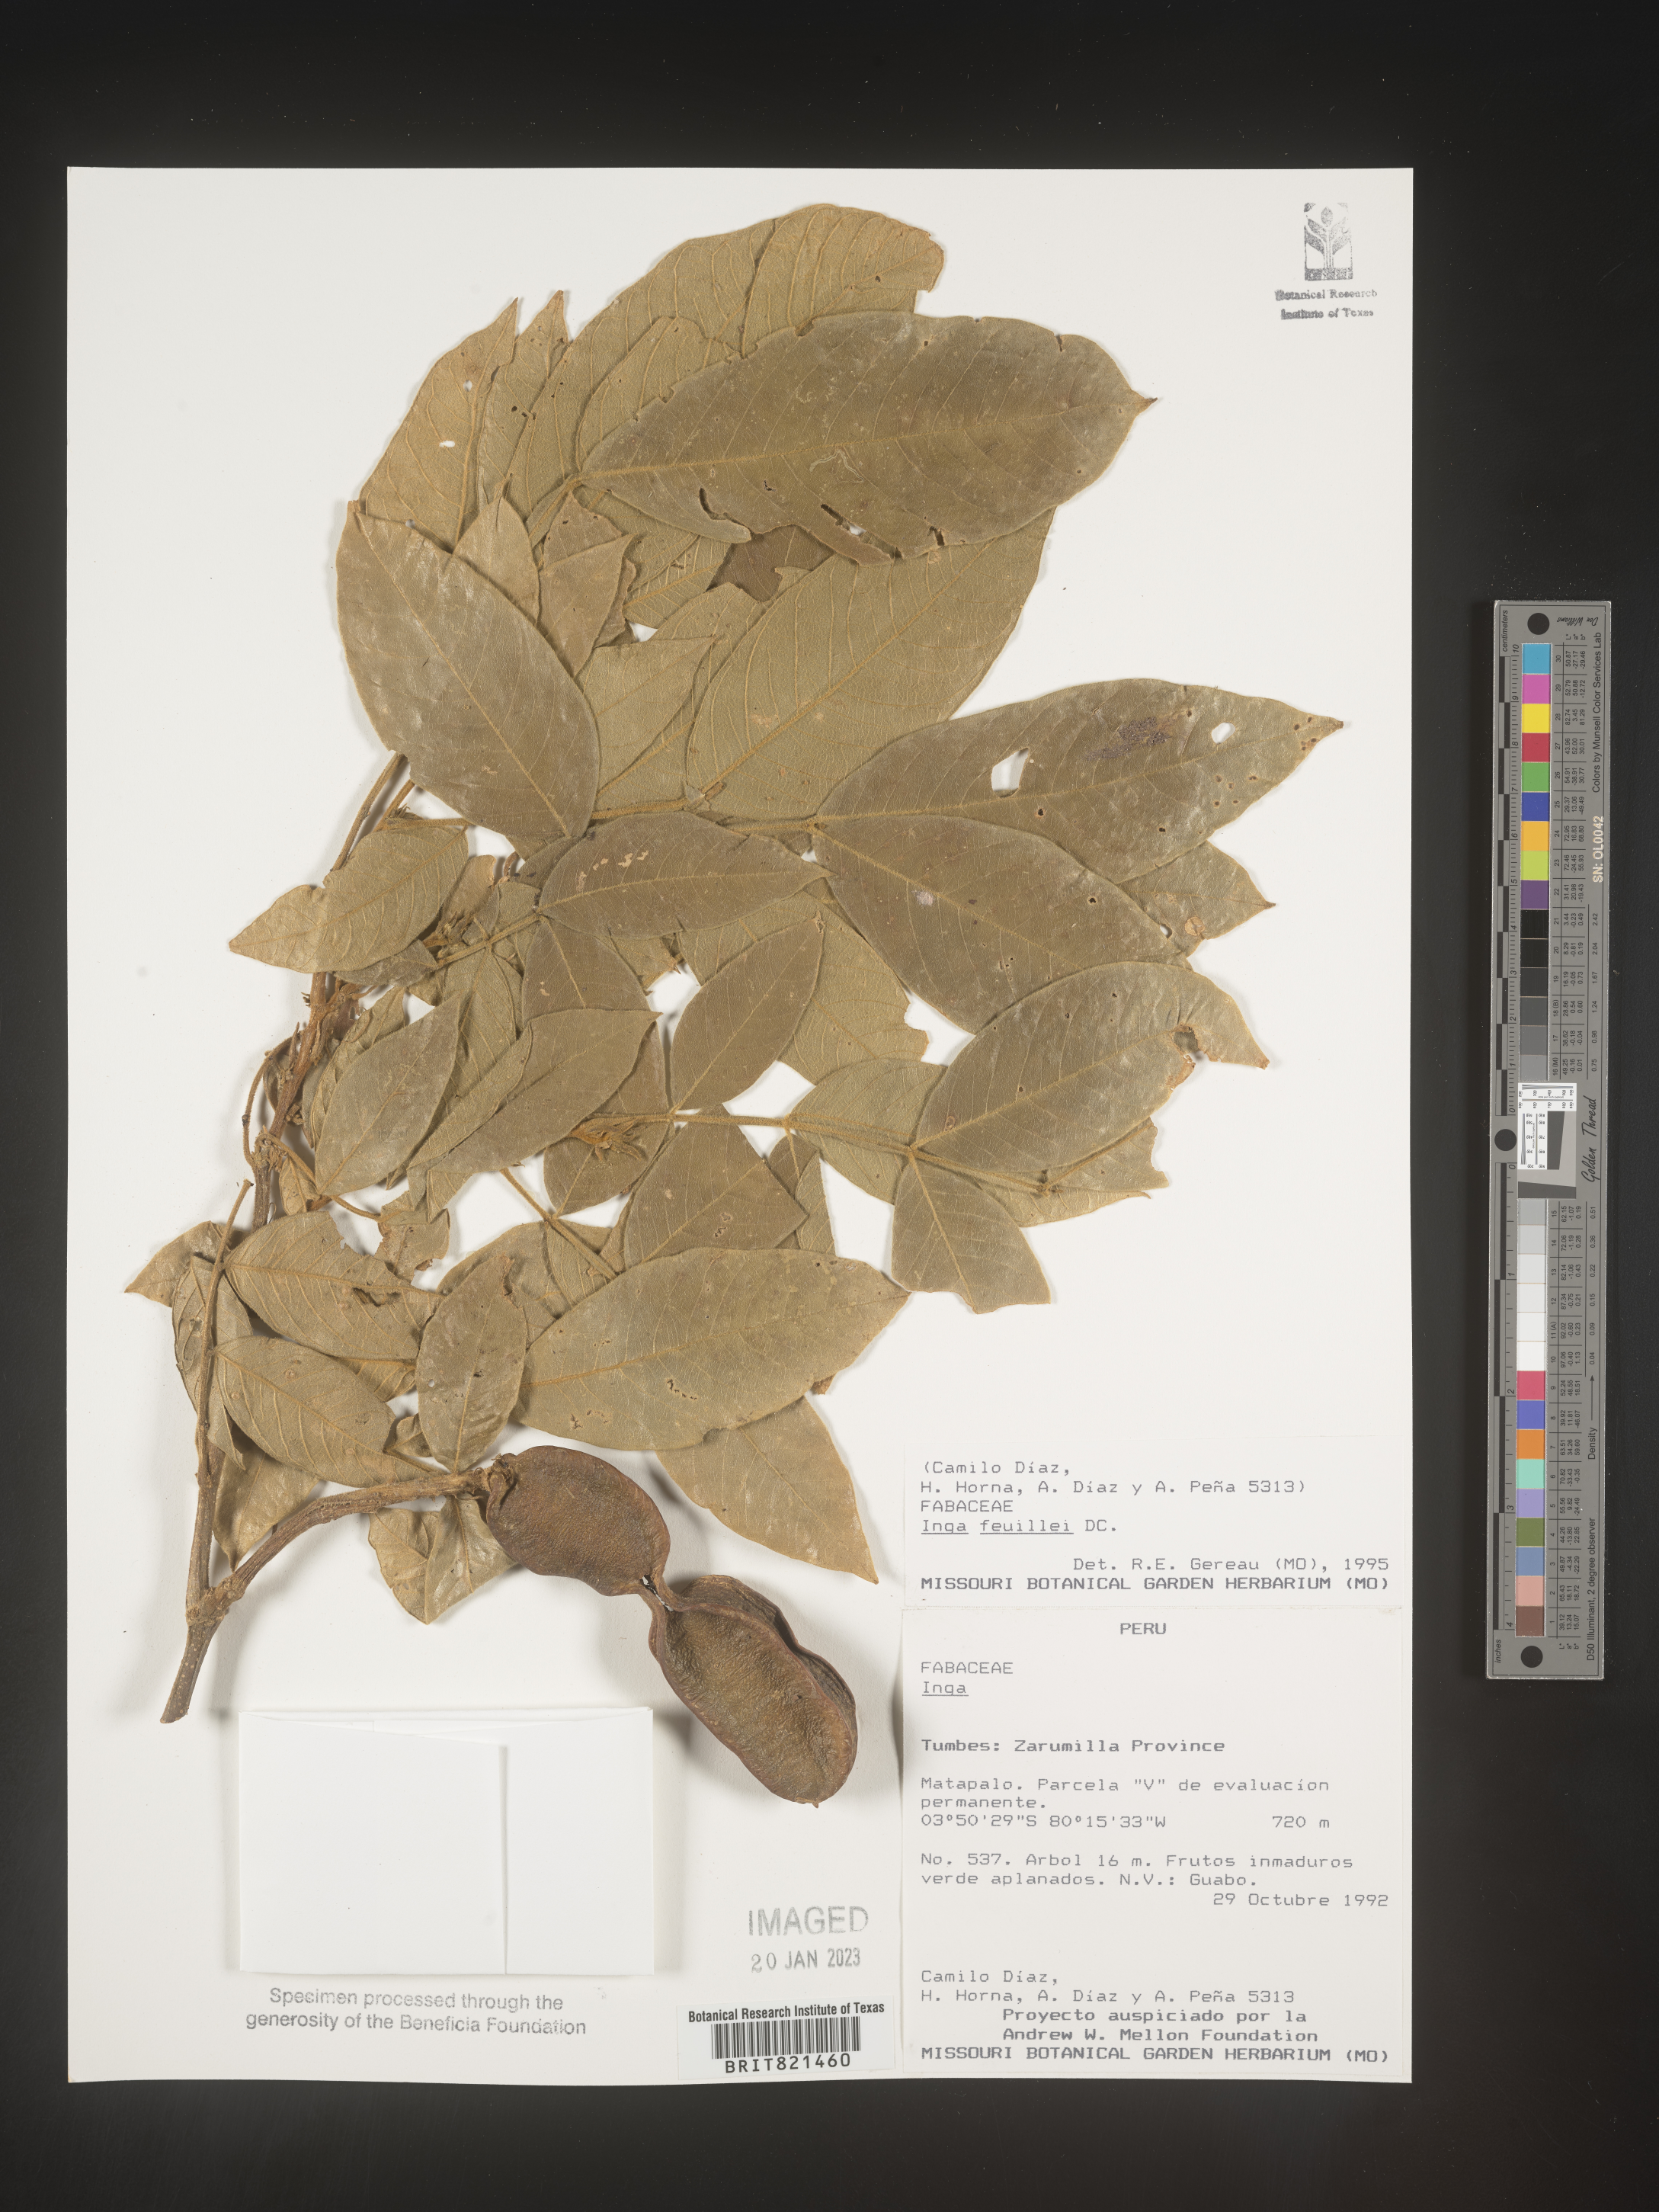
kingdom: Plantae
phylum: Tracheophyta
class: Magnoliopsida
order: Fabales
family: Fabaceae
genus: Inga
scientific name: Inga
